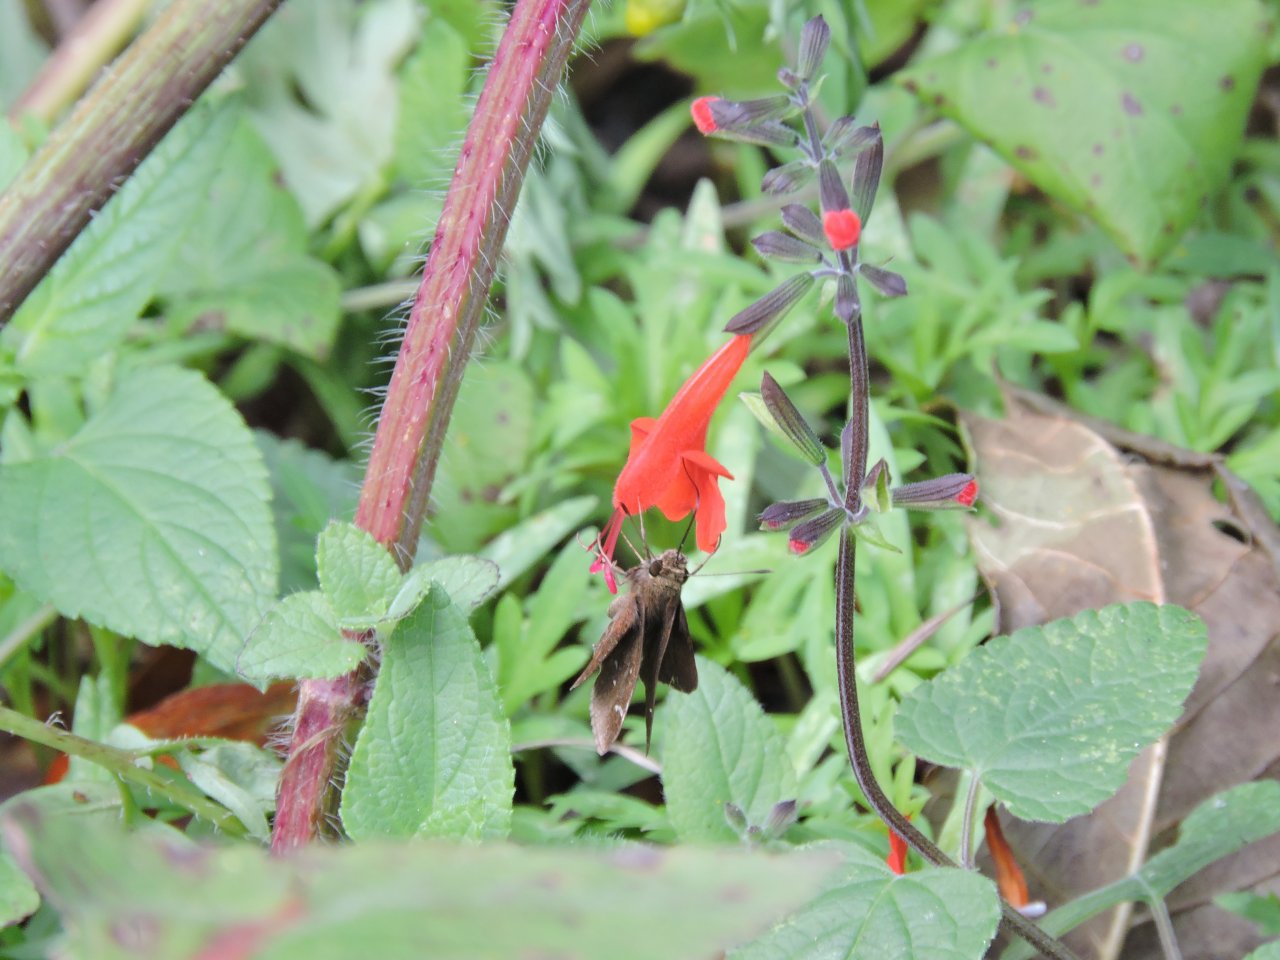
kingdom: Animalia
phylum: Arthropoda
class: Insecta
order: Lepidoptera
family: Hesperiidae
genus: Lerema
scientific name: Lerema accius
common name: Clouded Skipper
